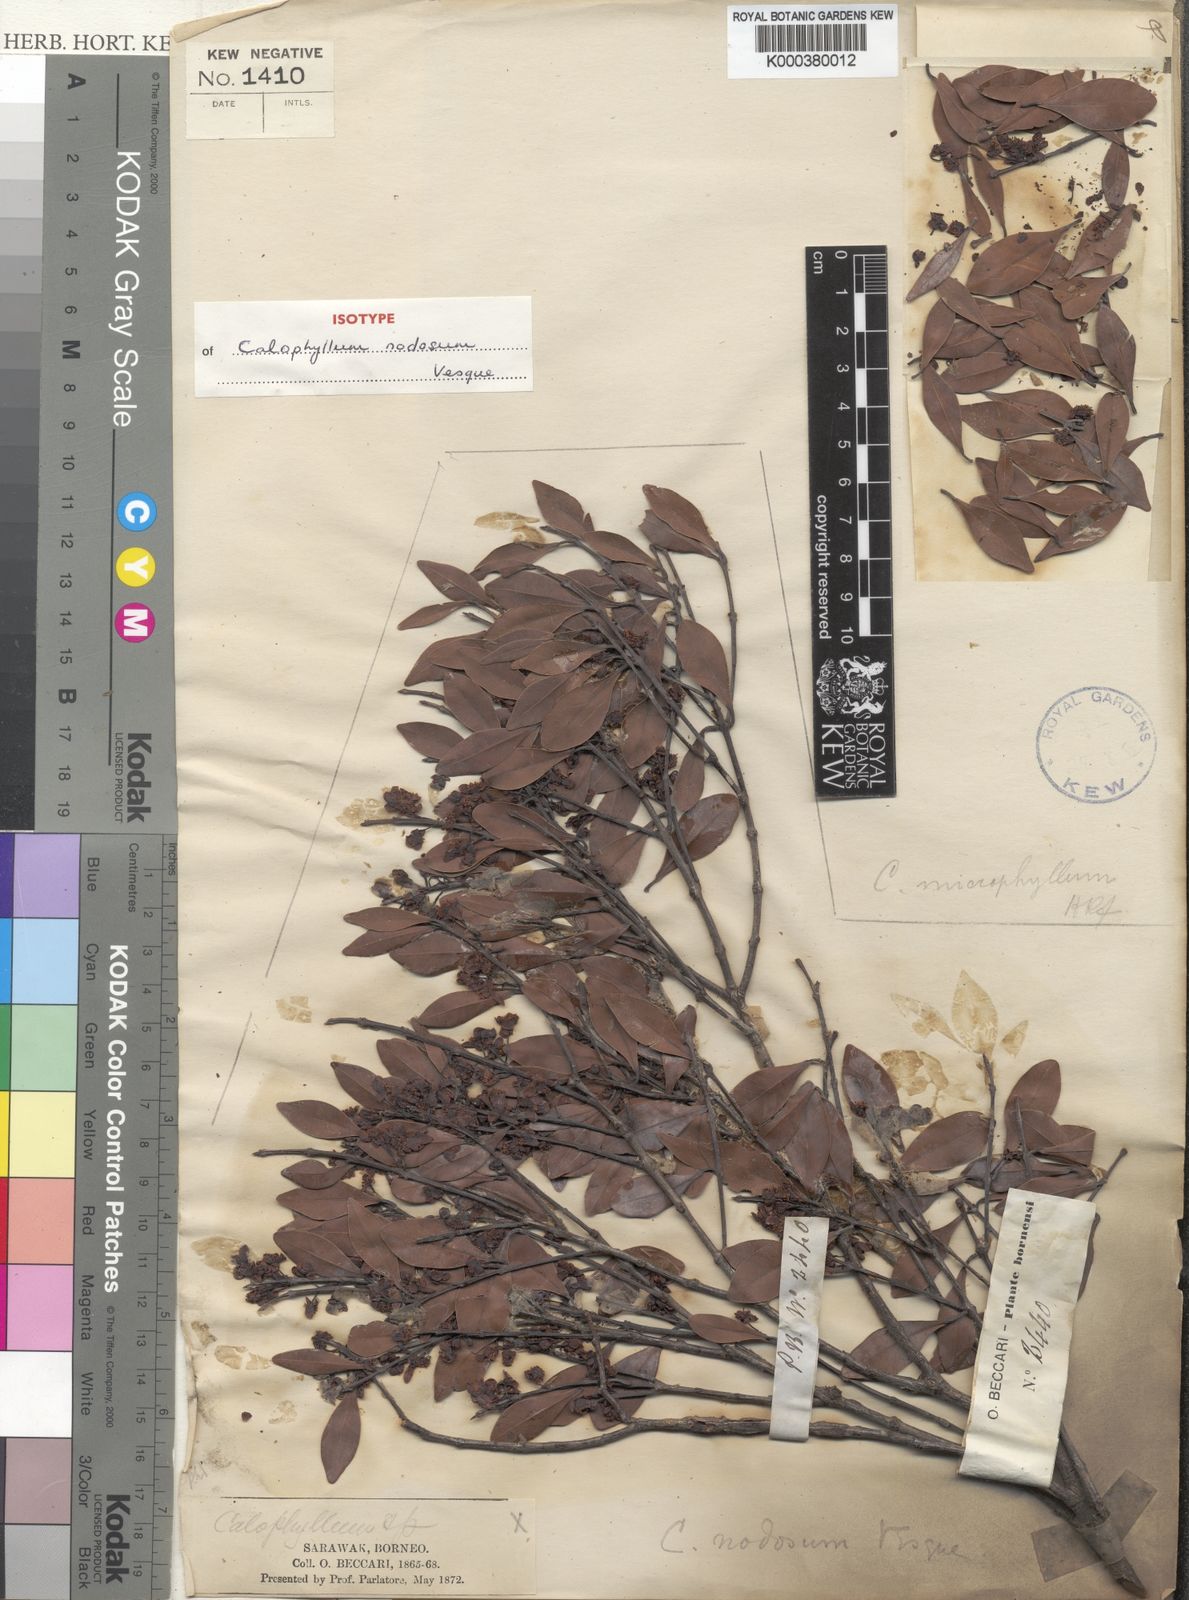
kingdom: Plantae
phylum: Tracheophyta
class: Magnoliopsida
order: Malpighiales
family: Calophyllaceae
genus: Calophyllum
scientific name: Calophyllum nodosum
